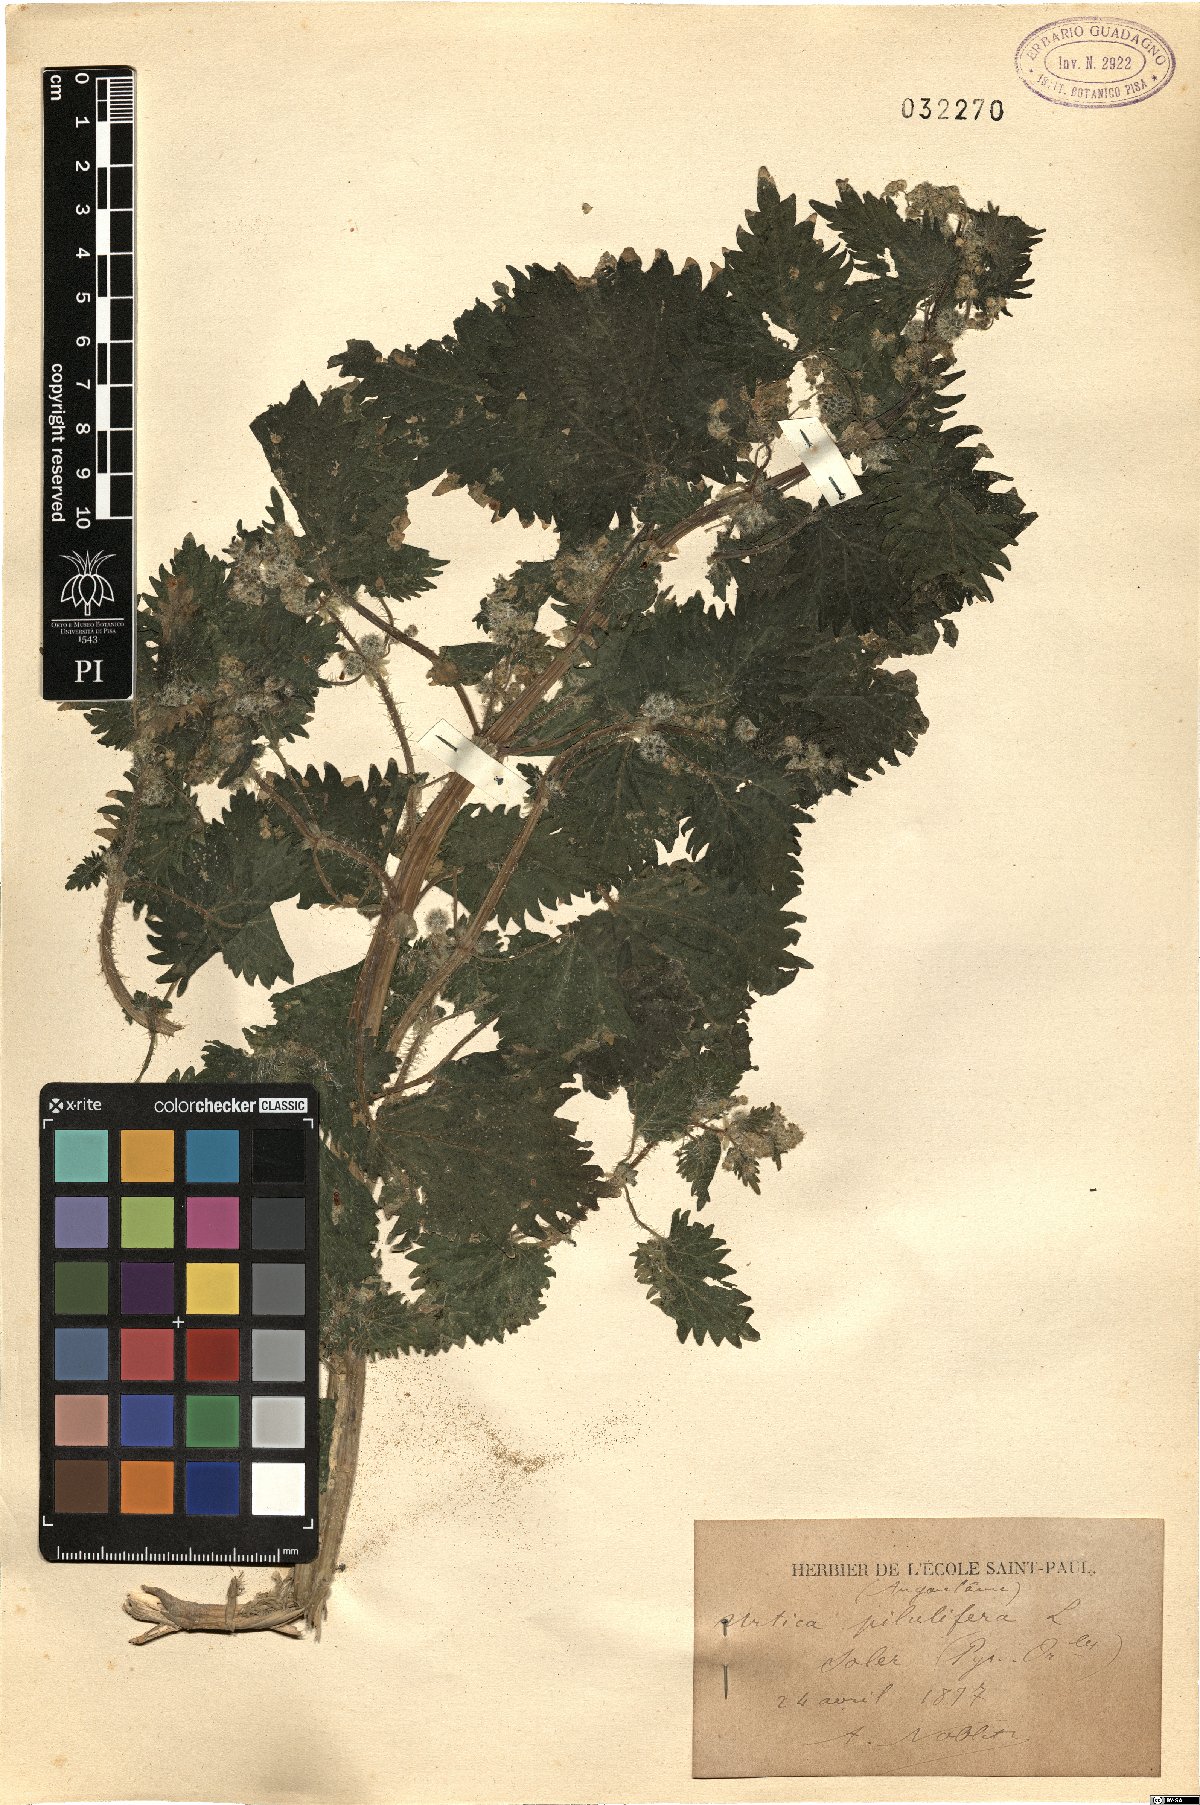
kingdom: Plantae
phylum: Tracheophyta
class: Magnoliopsida
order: Rosales
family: Urticaceae
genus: Urtica
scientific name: Urtica pilulifera
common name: Roman nettle
